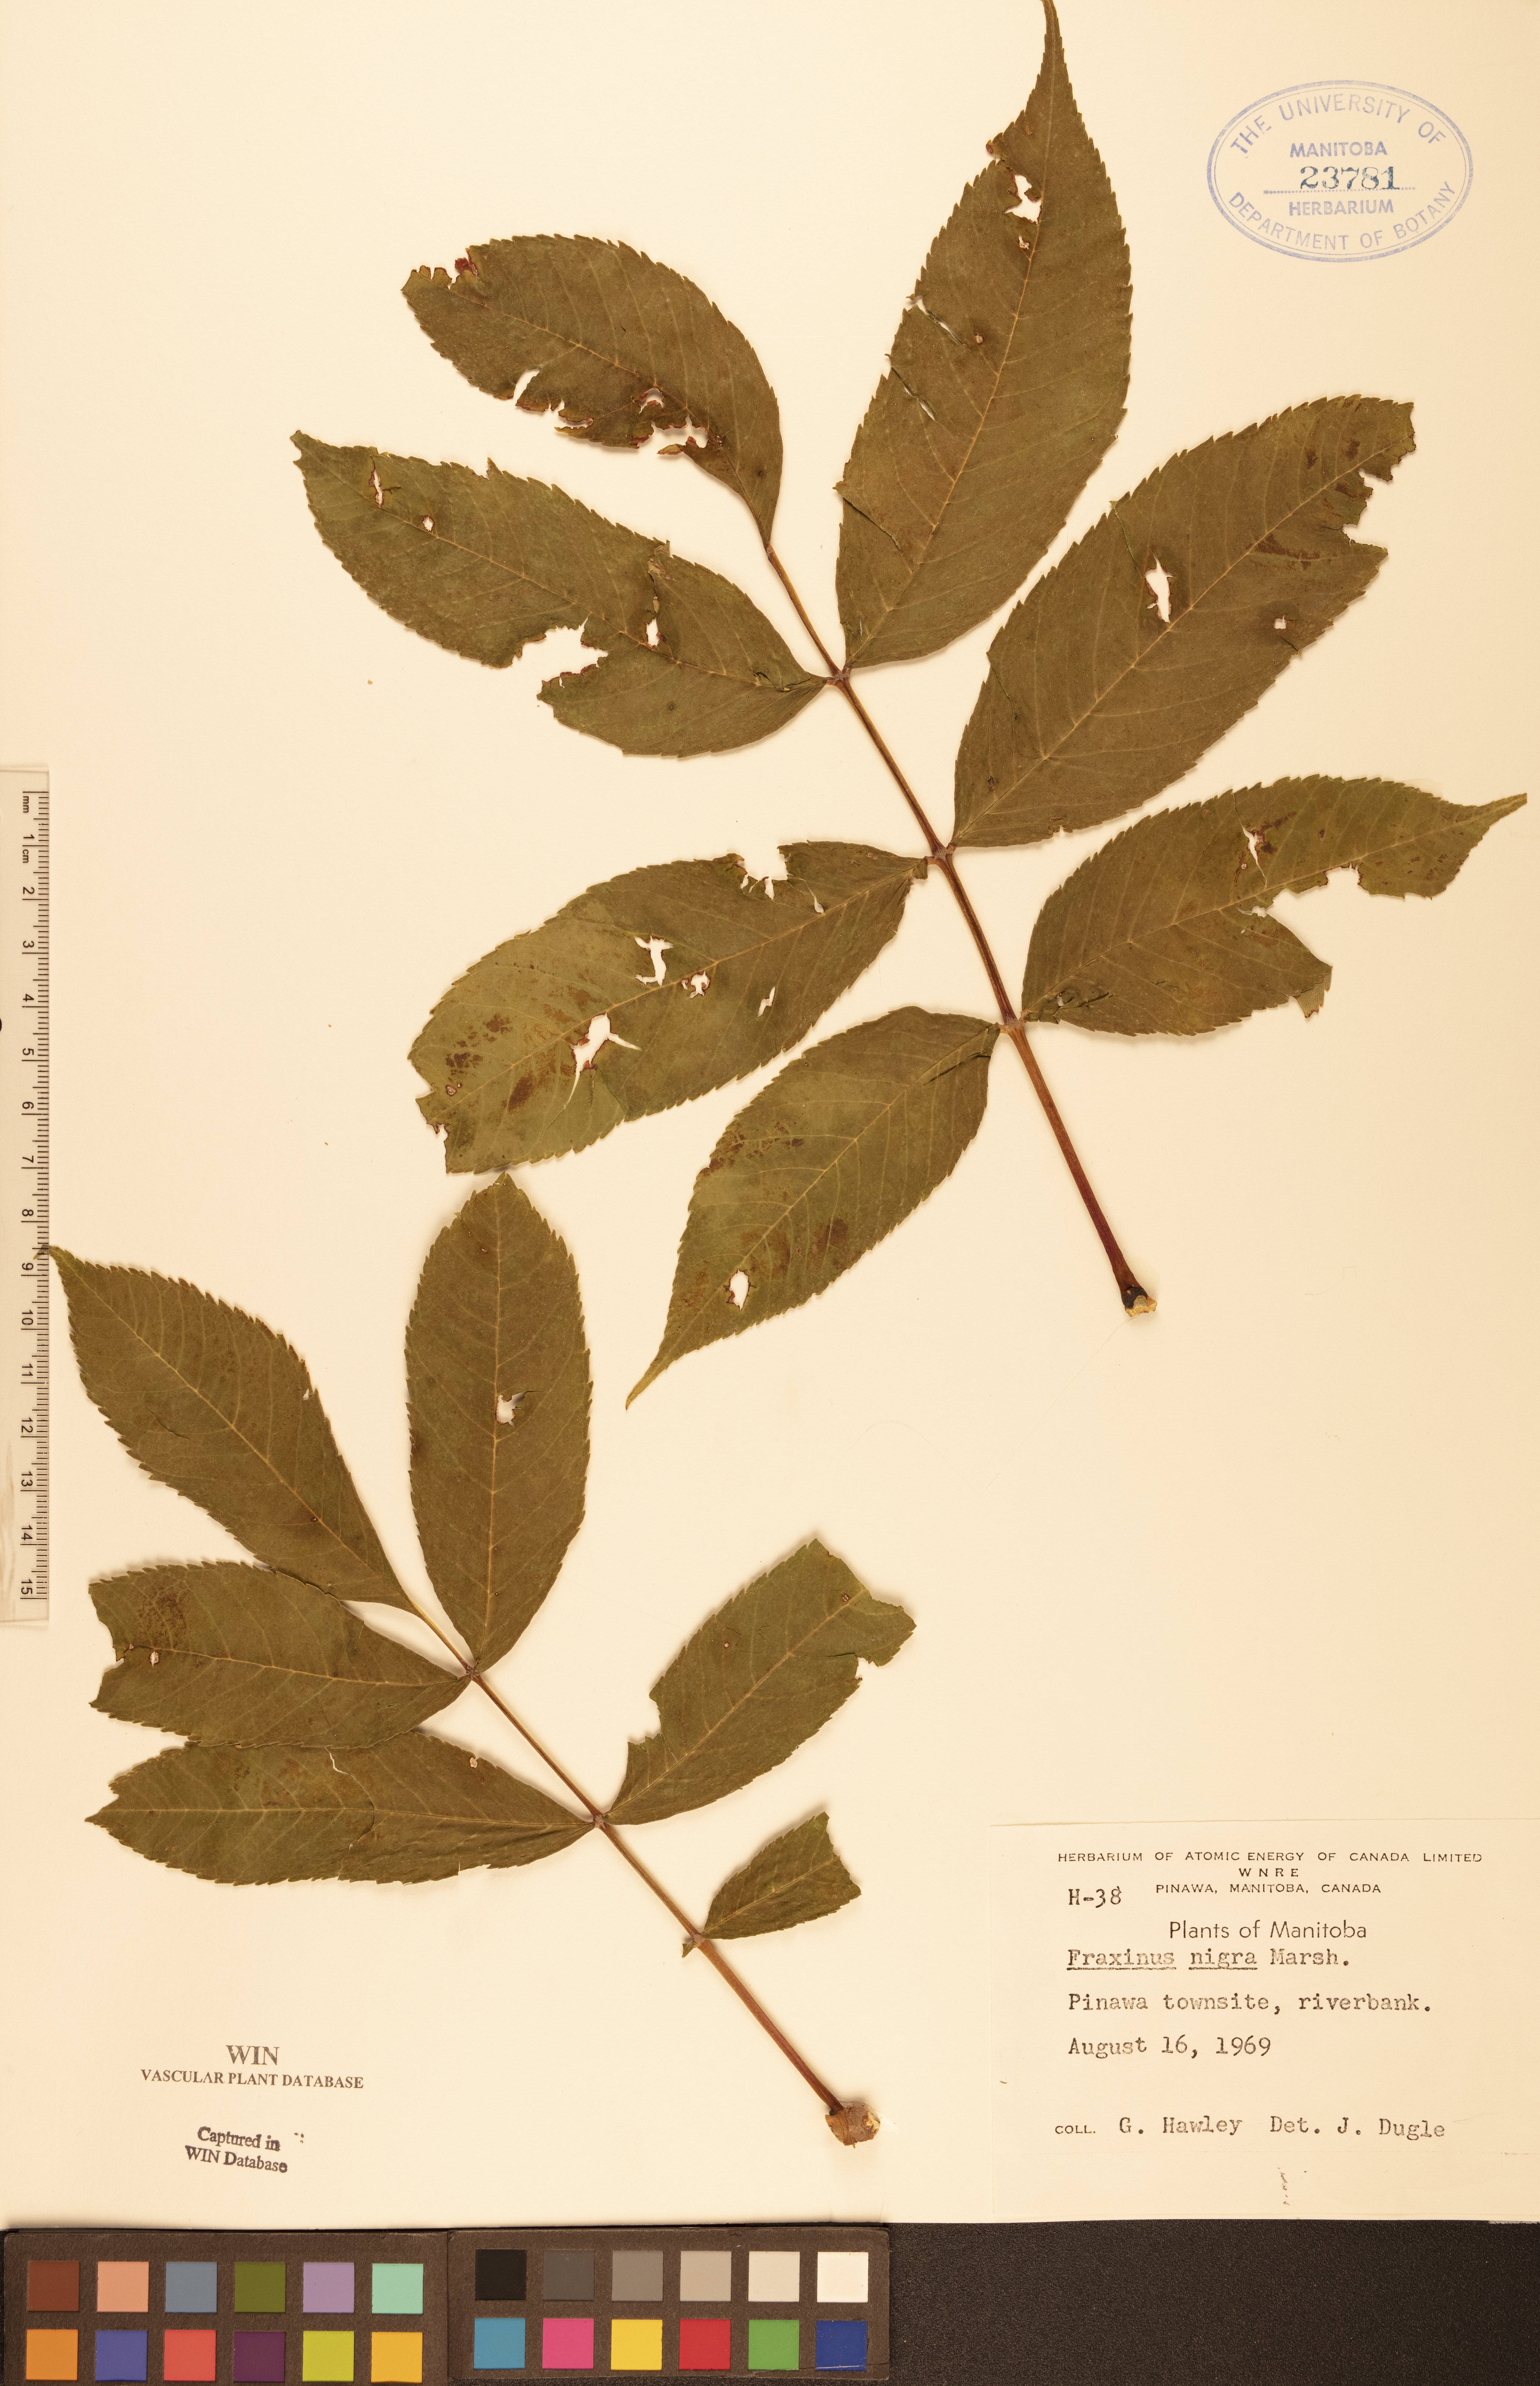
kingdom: Plantae
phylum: Tracheophyta
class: Magnoliopsida
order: Lamiales
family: Oleaceae
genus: Fraxinus
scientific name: Fraxinus nigra
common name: Black ash
